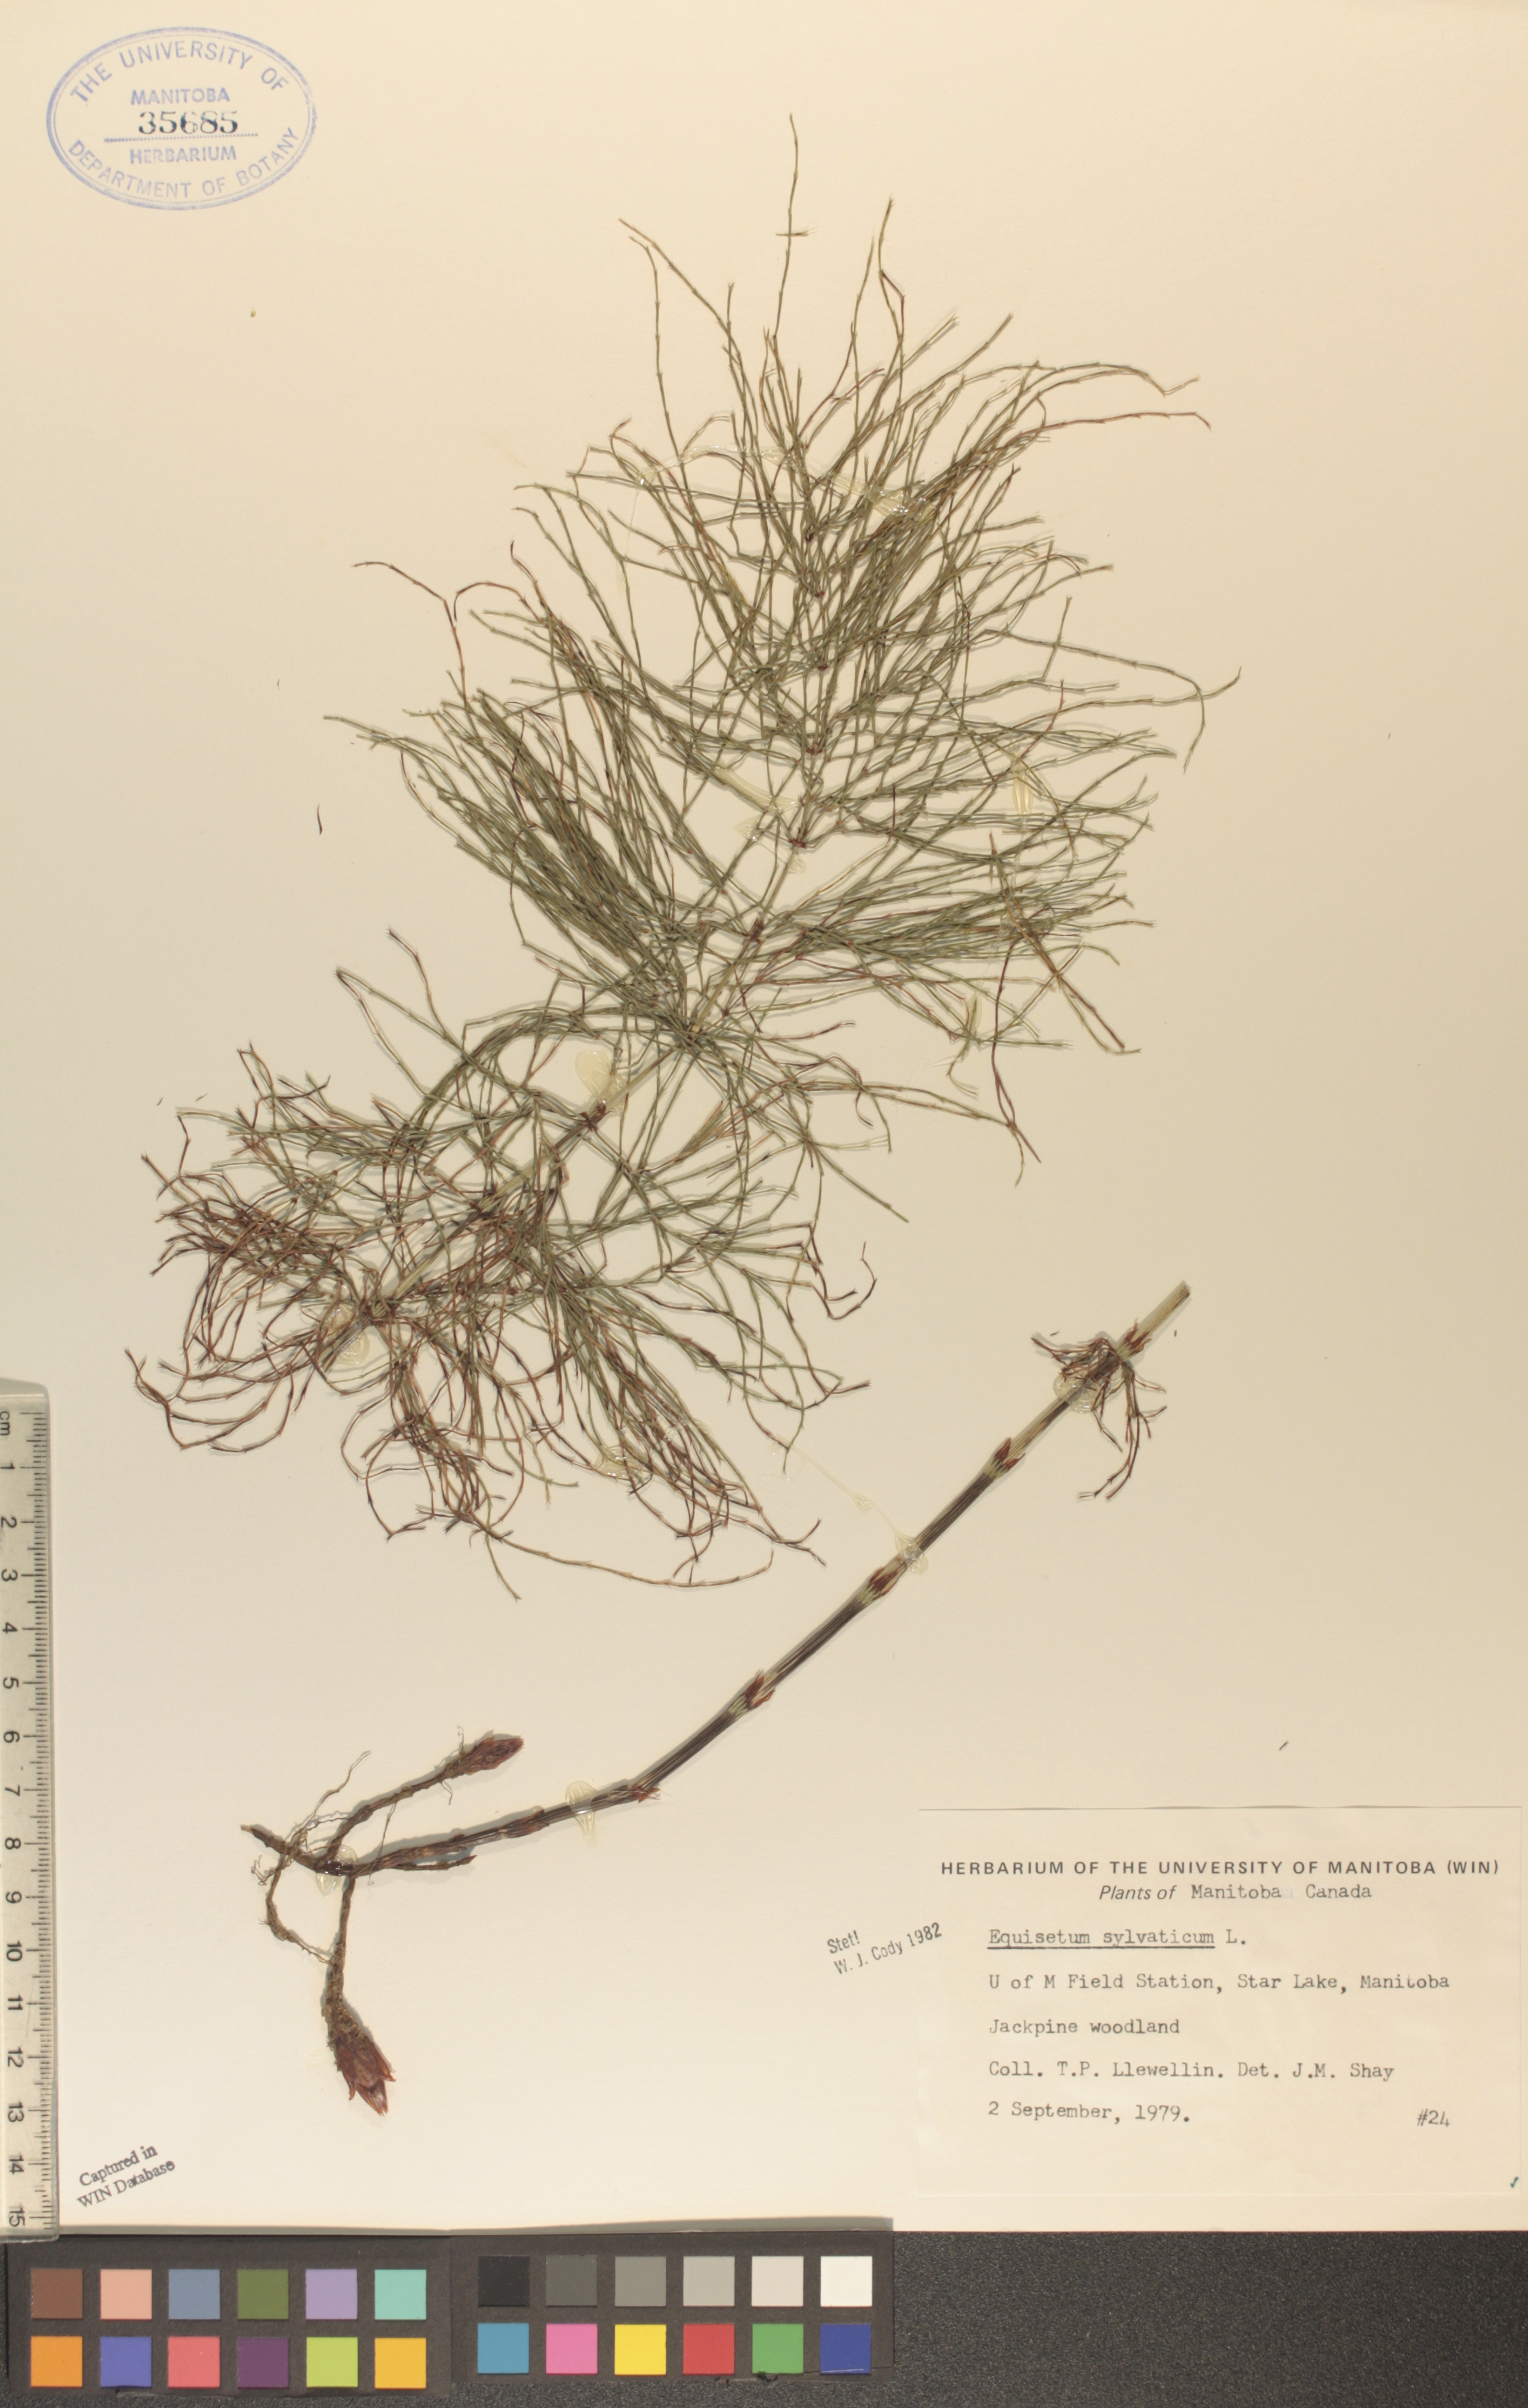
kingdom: Plantae
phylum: Tracheophyta
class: Polypodiopsida
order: Equisetales
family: Equisetaceae
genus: Equisetum
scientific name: Equisetum sylvaticum
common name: Wood horsetail
